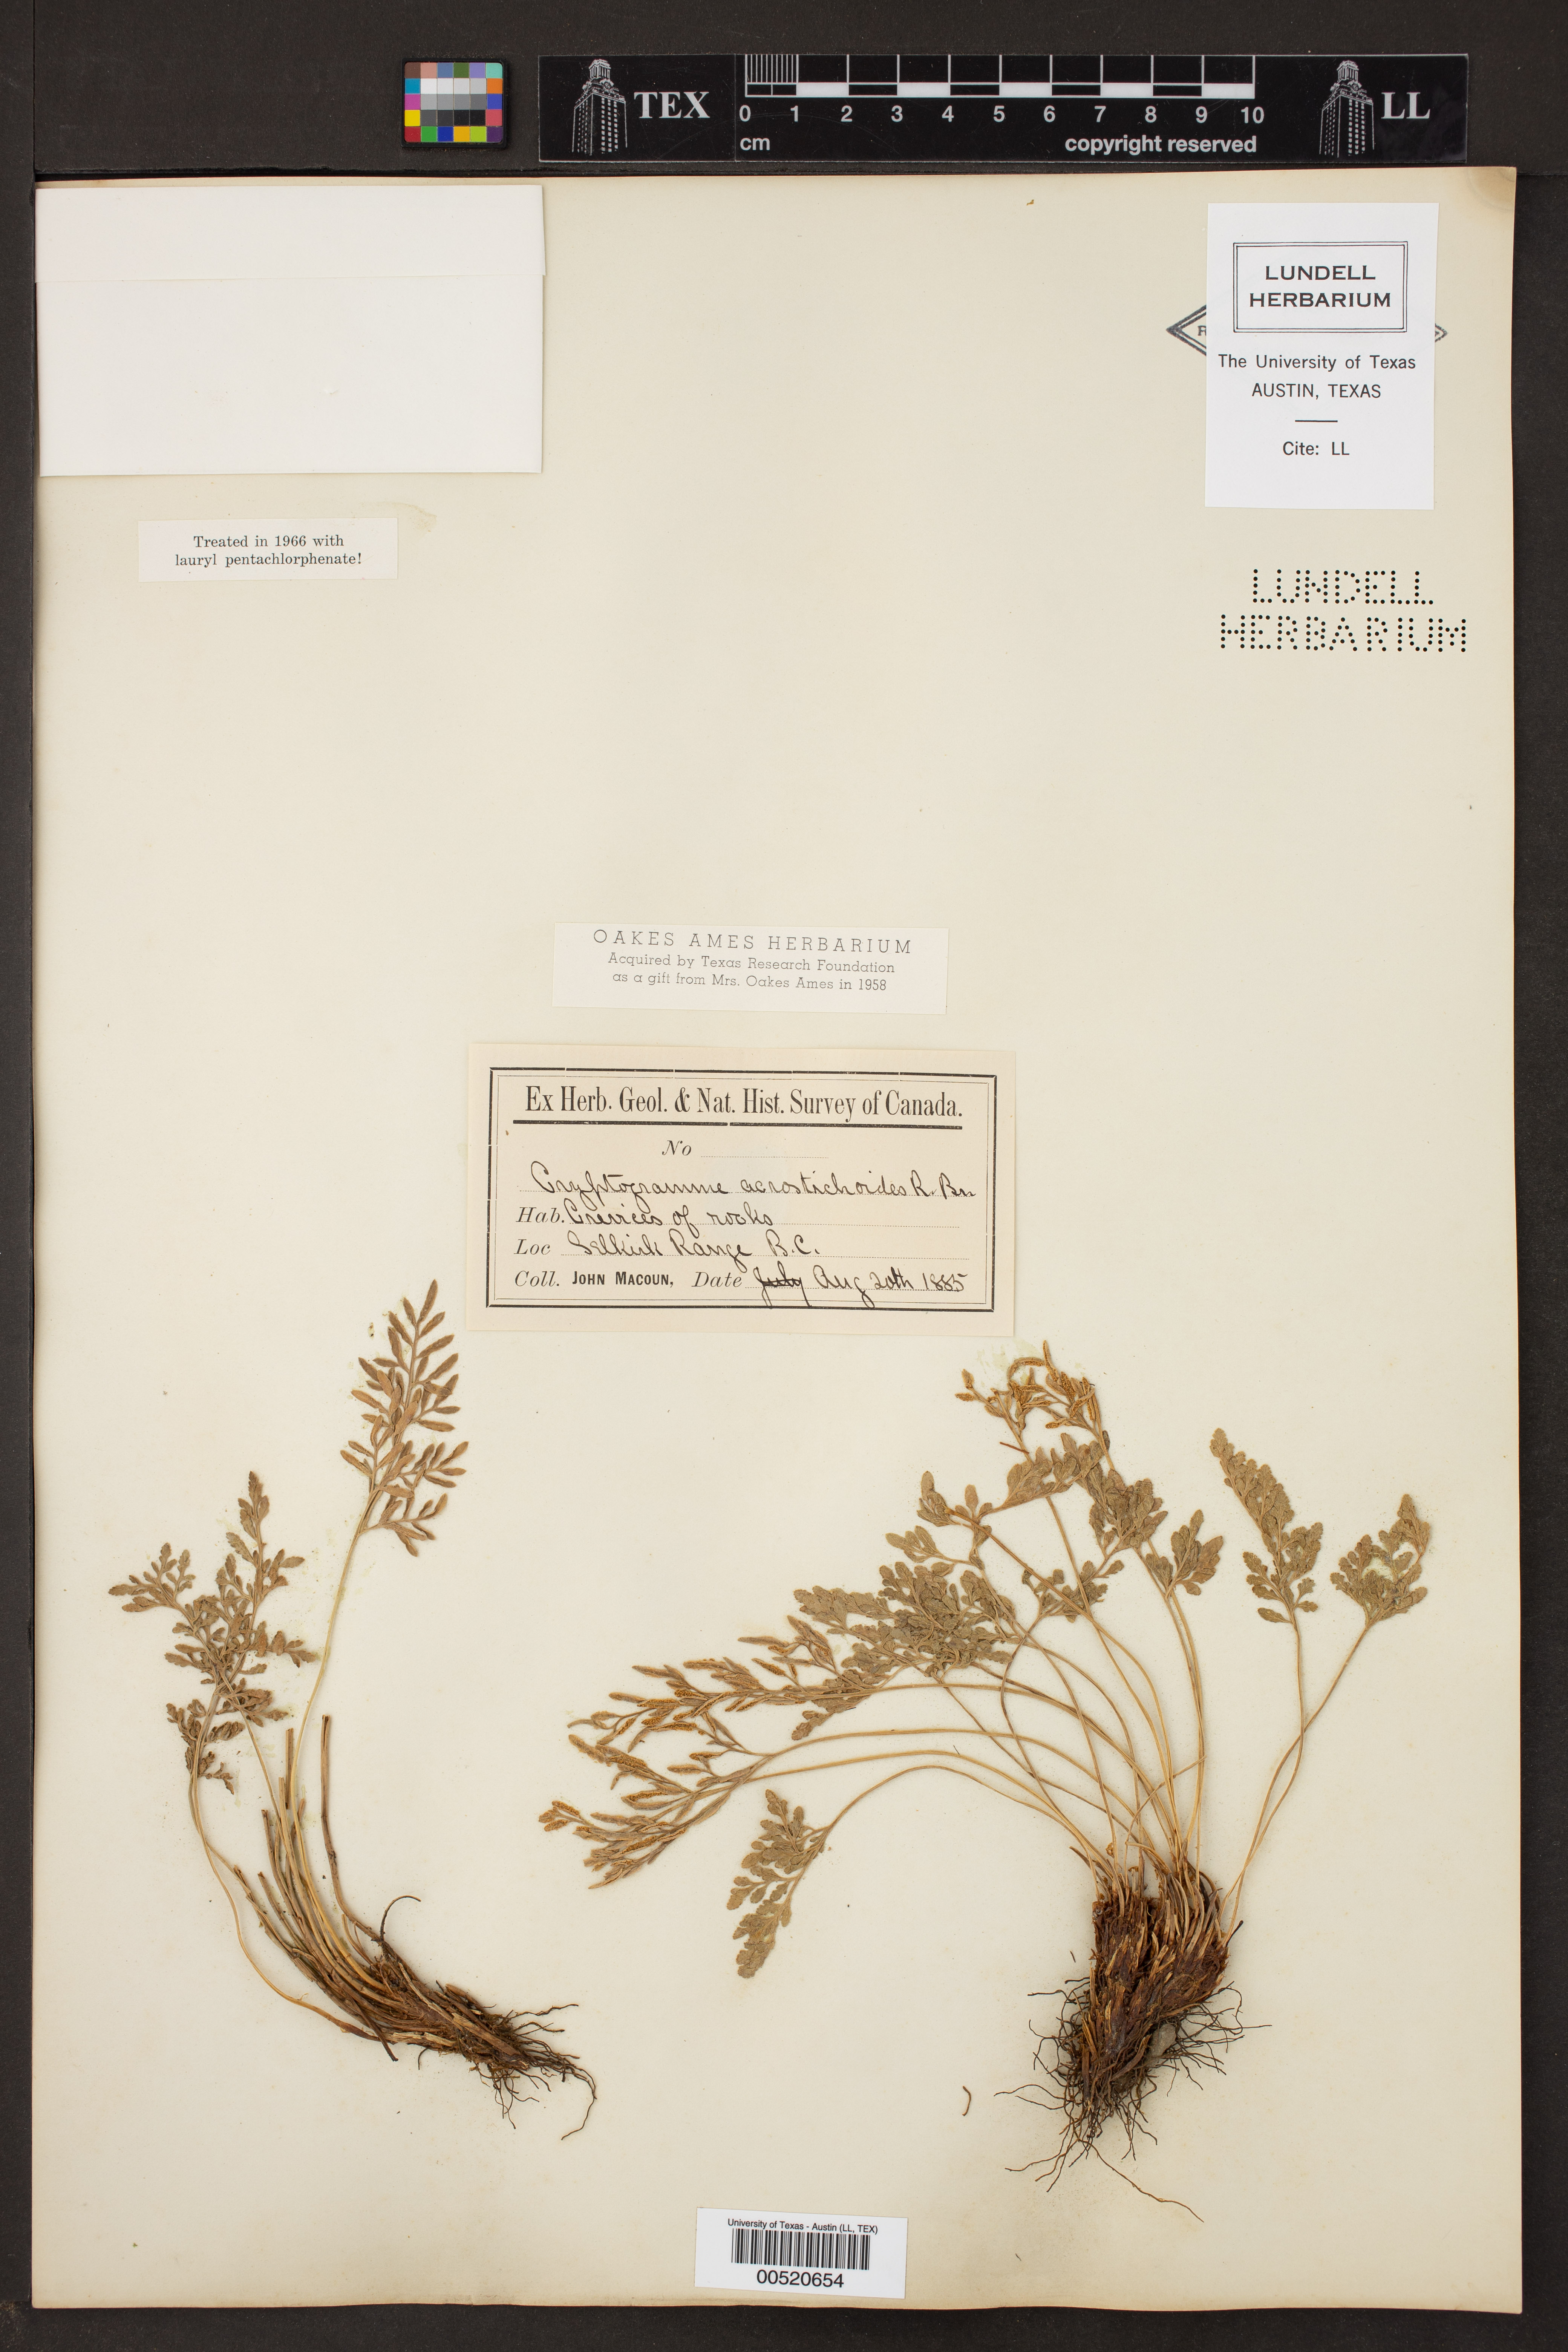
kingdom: Plantae
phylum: Tracheophyta
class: Polypodiopsida
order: Polypodiales
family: Pteridaceae
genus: Cryptogramma
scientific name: Cryptogramma acrostichoides
